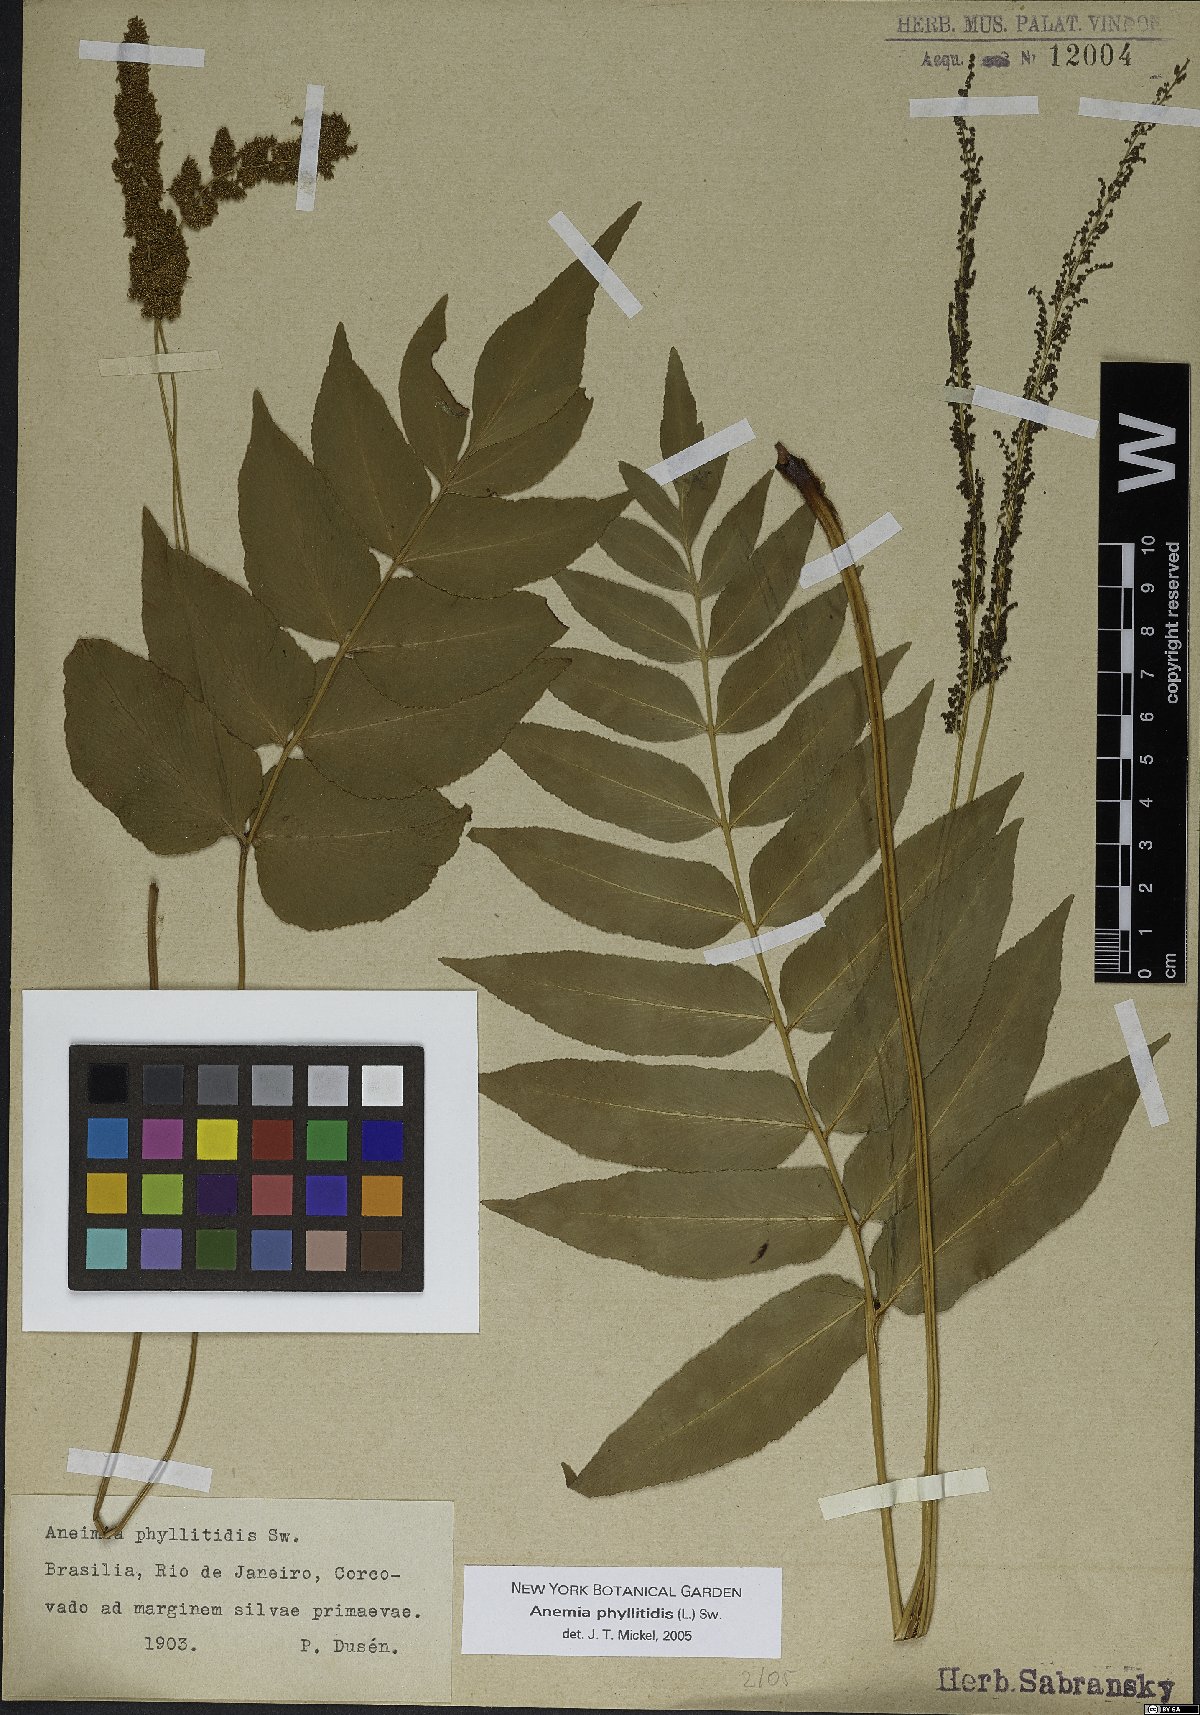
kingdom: Plantae
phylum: Tracheophyta
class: Polypodiopsida
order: Schizaeales
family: Anemiaceae
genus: Anemia
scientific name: Anemia phyllitidis
